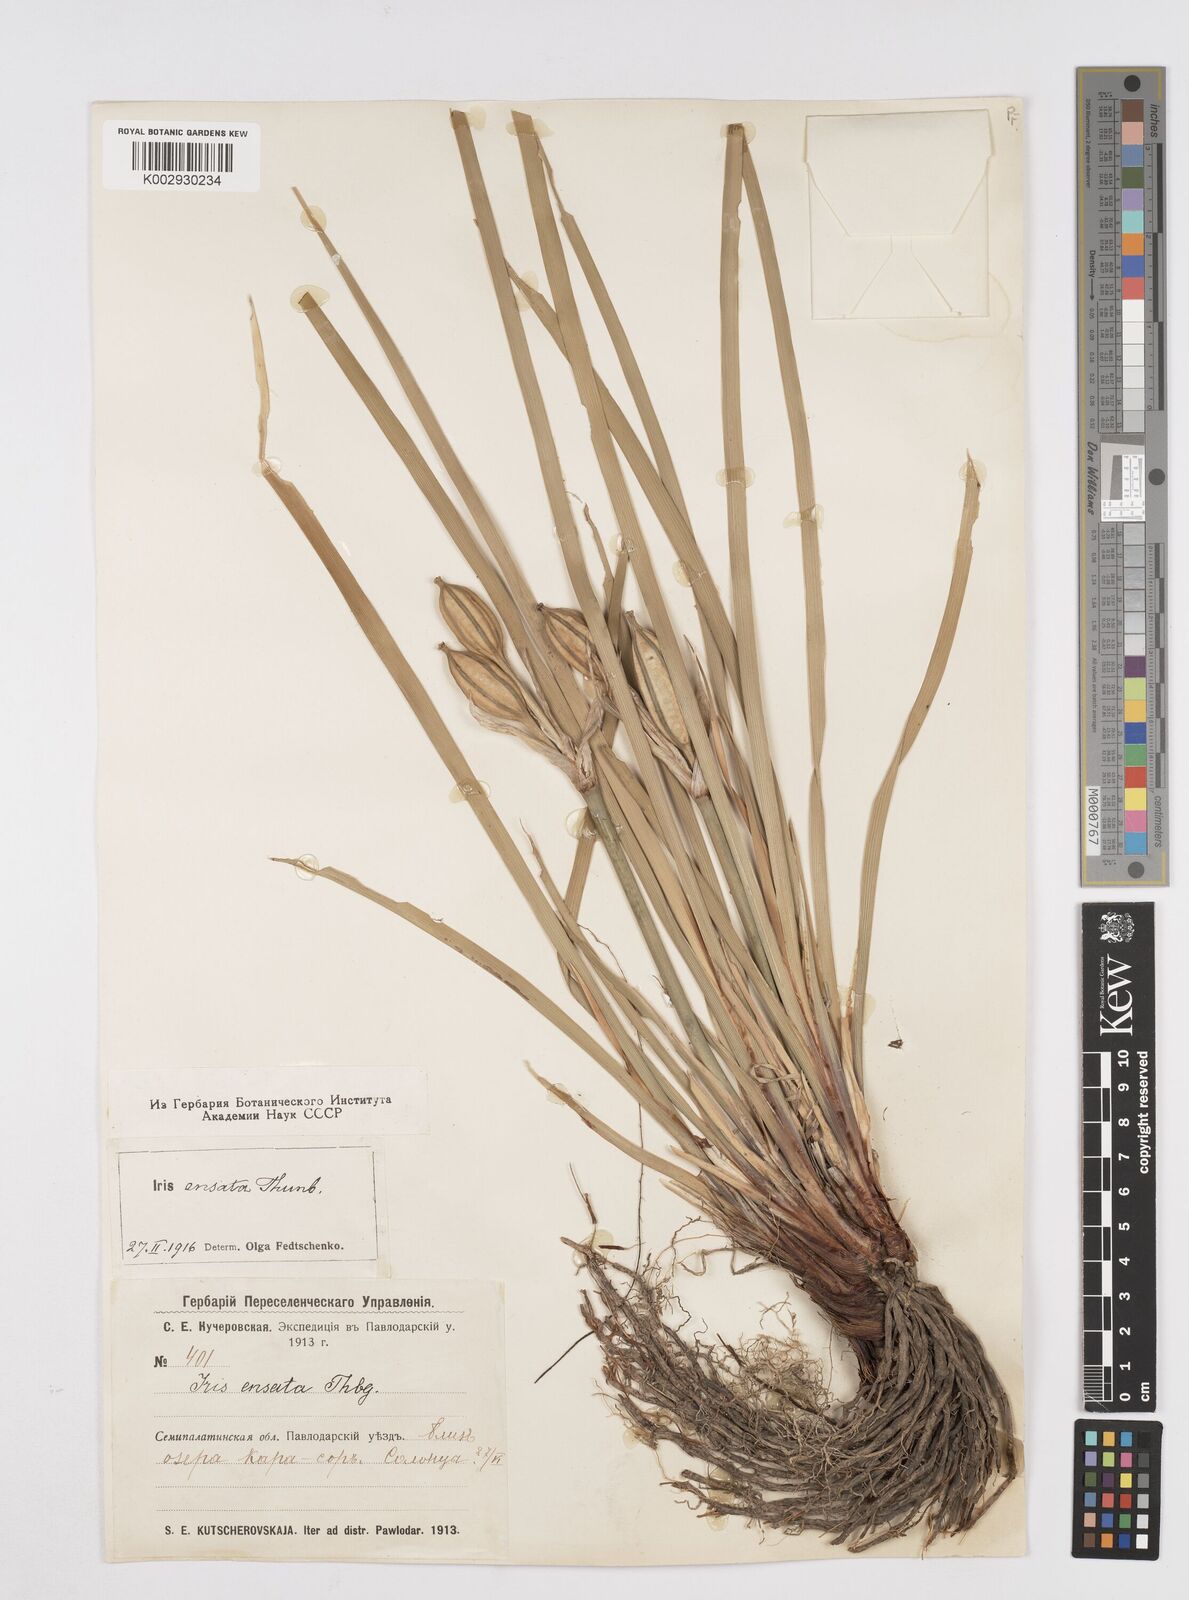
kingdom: Plantae
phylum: Tracheophyta
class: Liliopsida
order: Asparagales
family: Iridaceae
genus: Iris
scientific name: Iris lactea
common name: White-flower chinese iris
